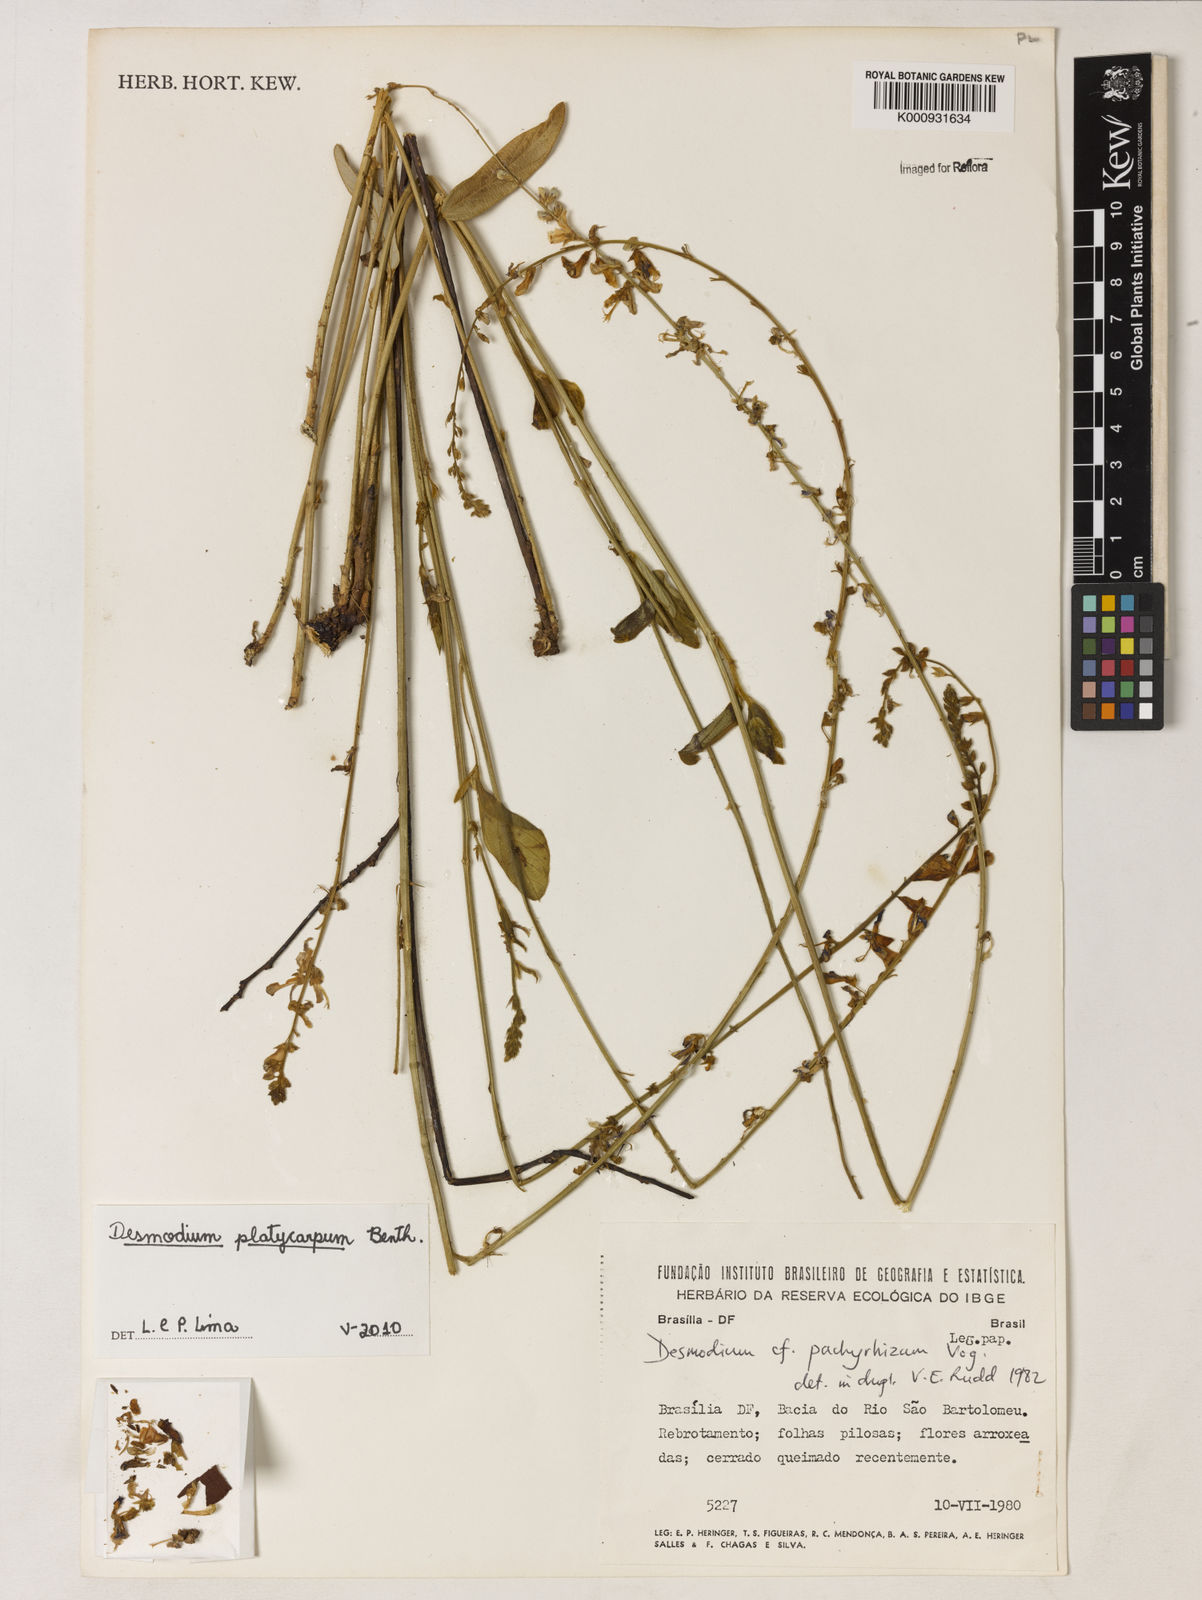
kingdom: Plantae
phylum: Tracheophyta
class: Magnoliopsida
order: Fabales
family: Fabaceae
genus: Desmodium
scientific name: Desmodium platycarpum
